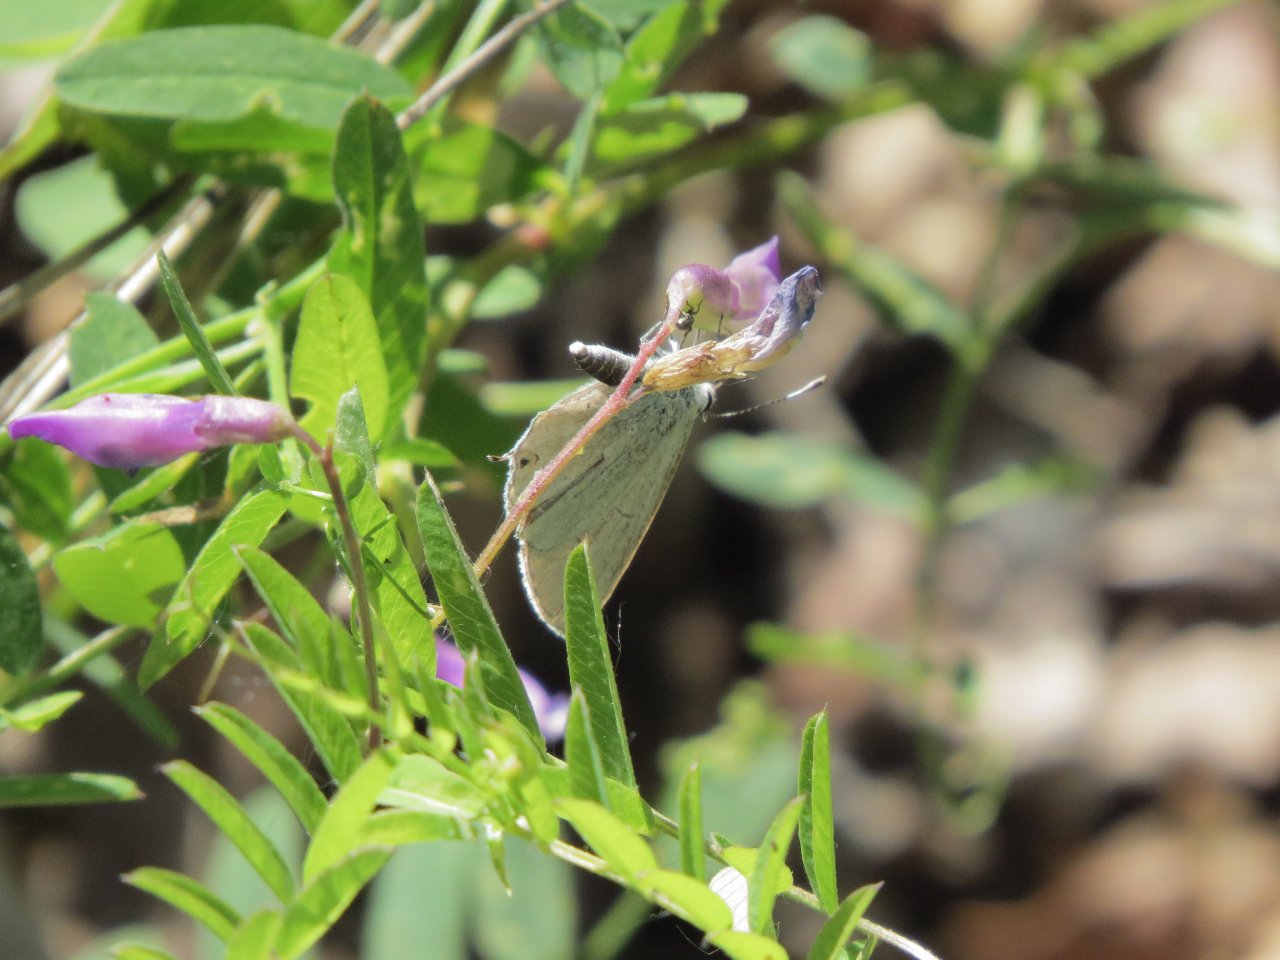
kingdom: Animalia
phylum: Arthropoda
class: Insecta
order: Lepidoptera
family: Lycaenidae
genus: Elkalyce
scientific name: Elkalyce amyntula
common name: Western Tailed-Blue
